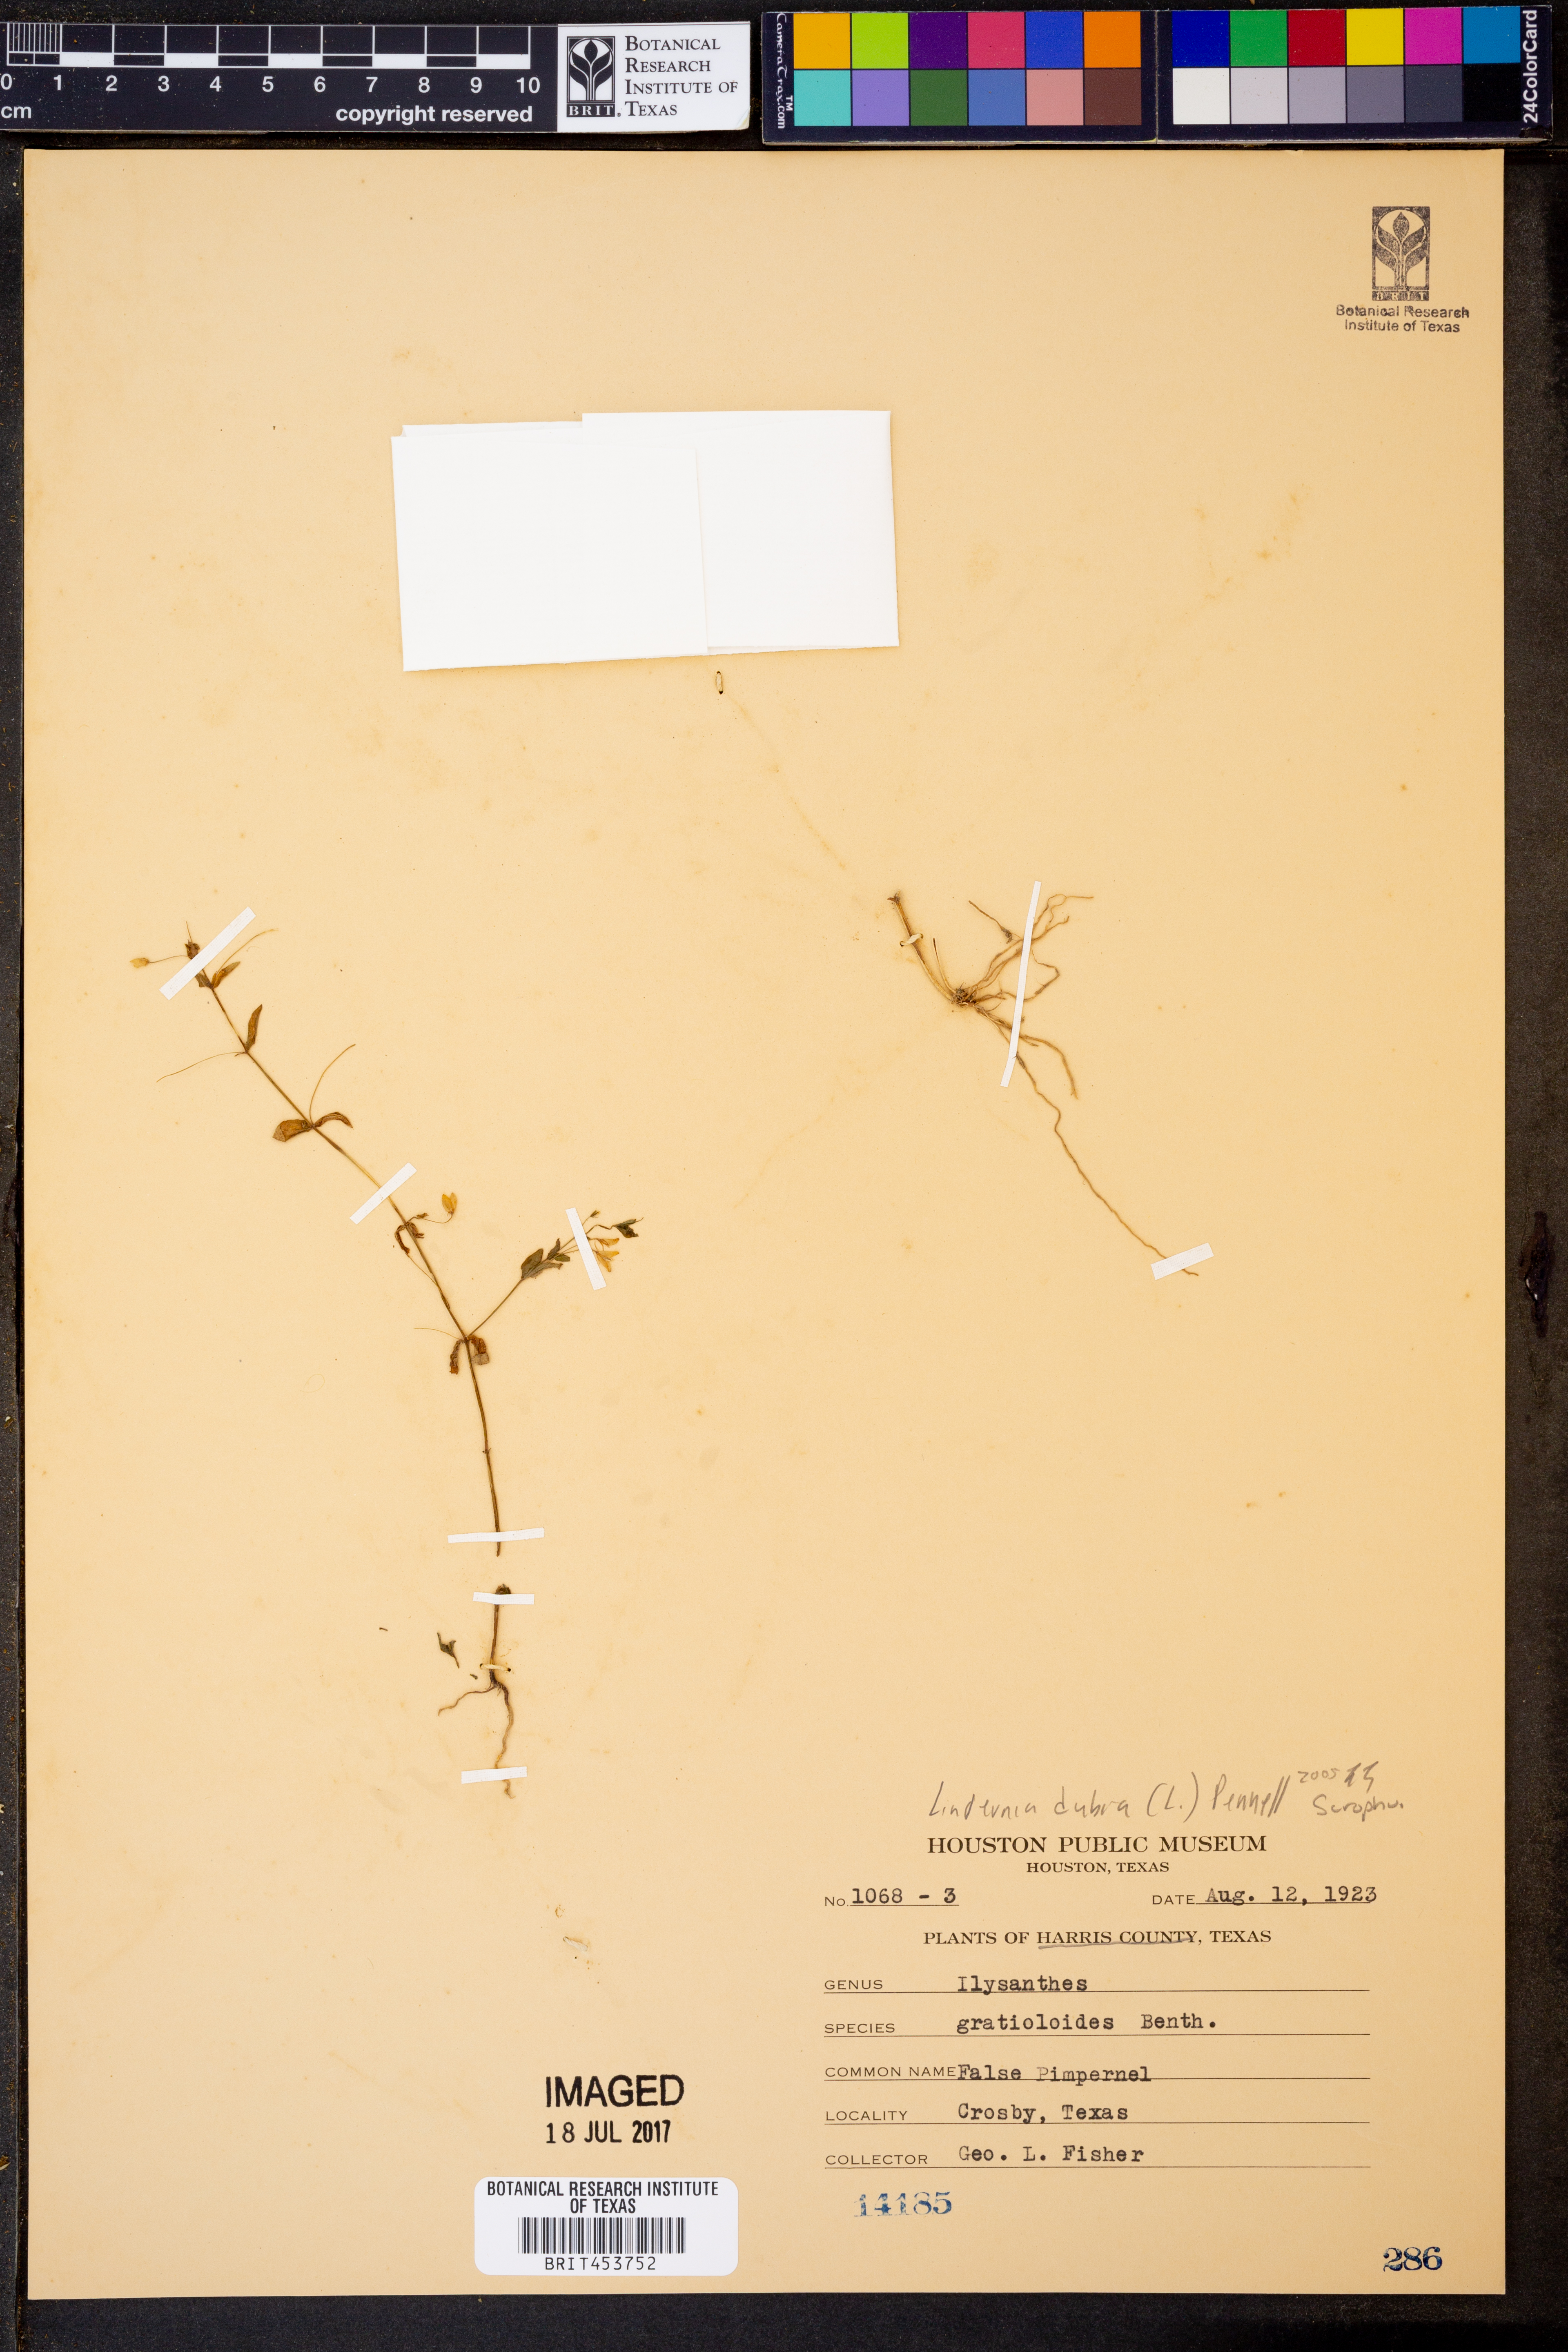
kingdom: Plantae
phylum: Tracheophyta
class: Magnoliopsida
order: Lamiales
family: Linderniaceae
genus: Lindernia
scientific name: Lindernia dubia
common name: Annual false pimpernel
